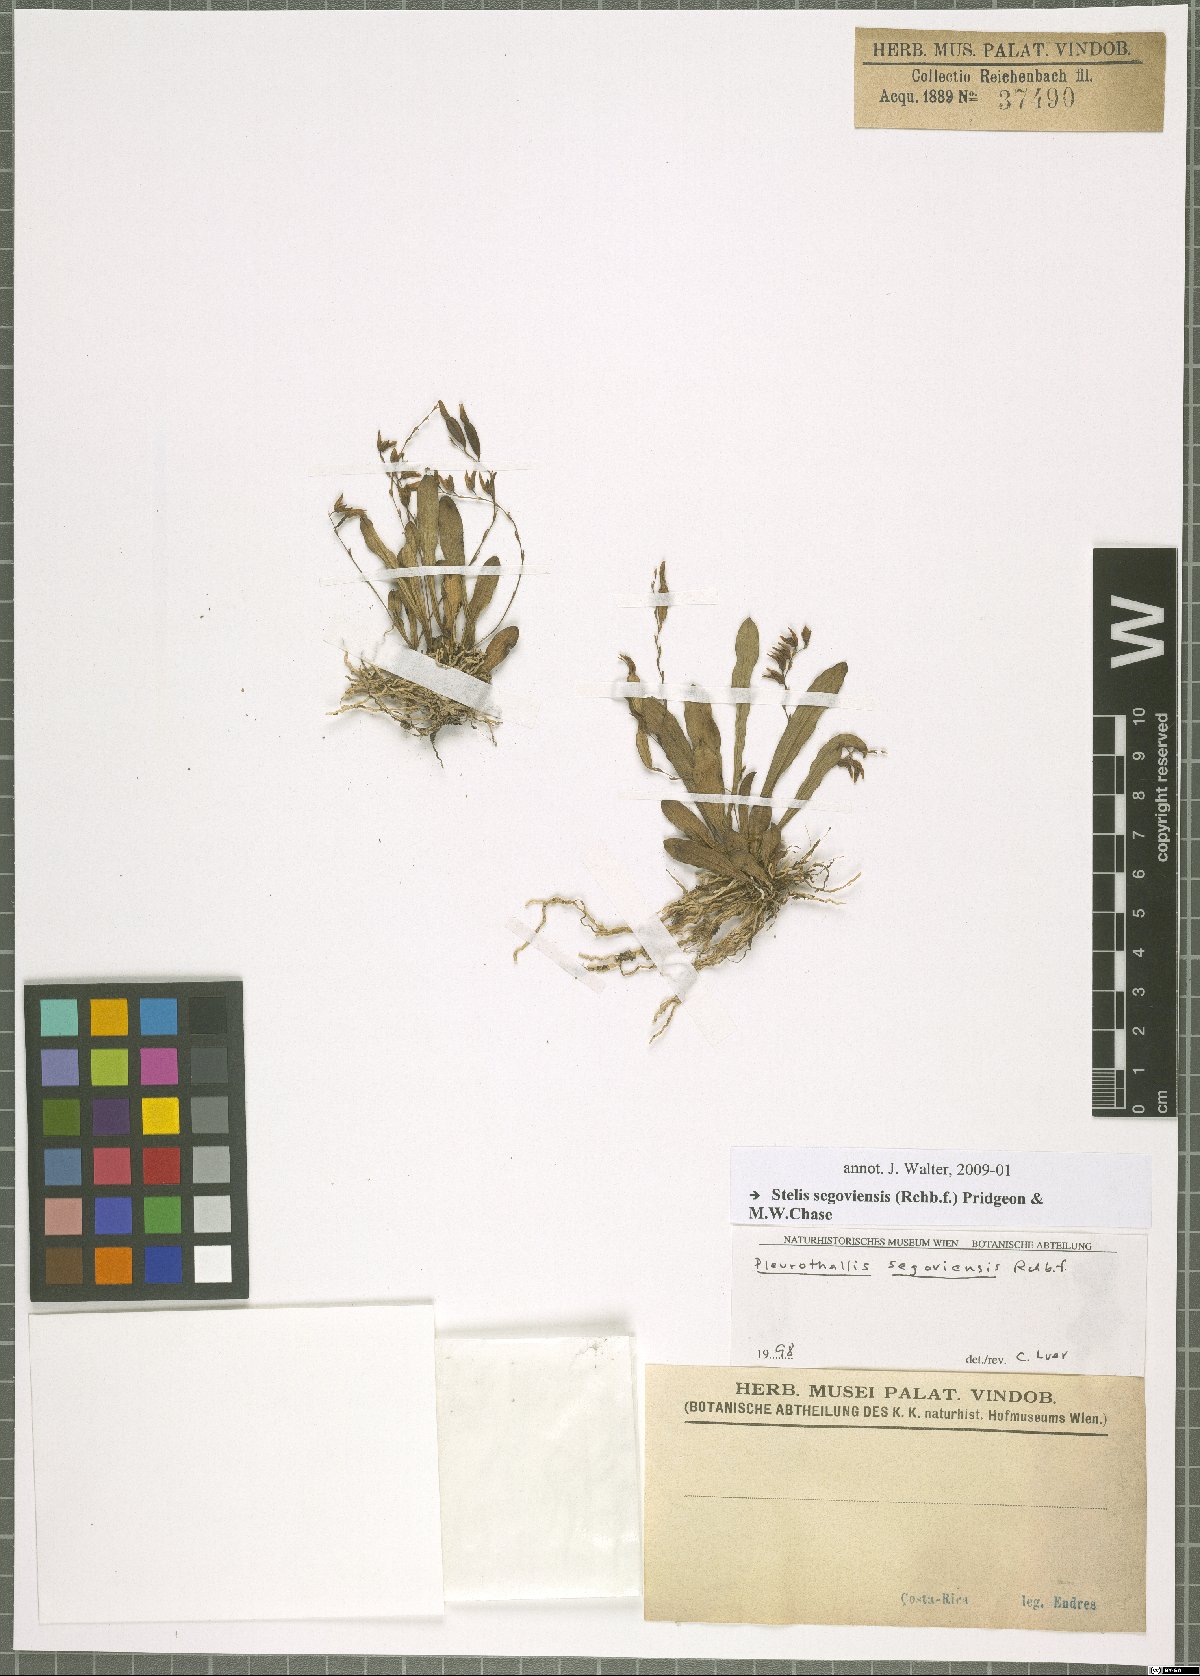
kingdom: Plantae
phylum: Tracheophyta
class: Liliopsida
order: Asparagales
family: Orchidaceae
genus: Stelis
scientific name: Stelis segoviensis
